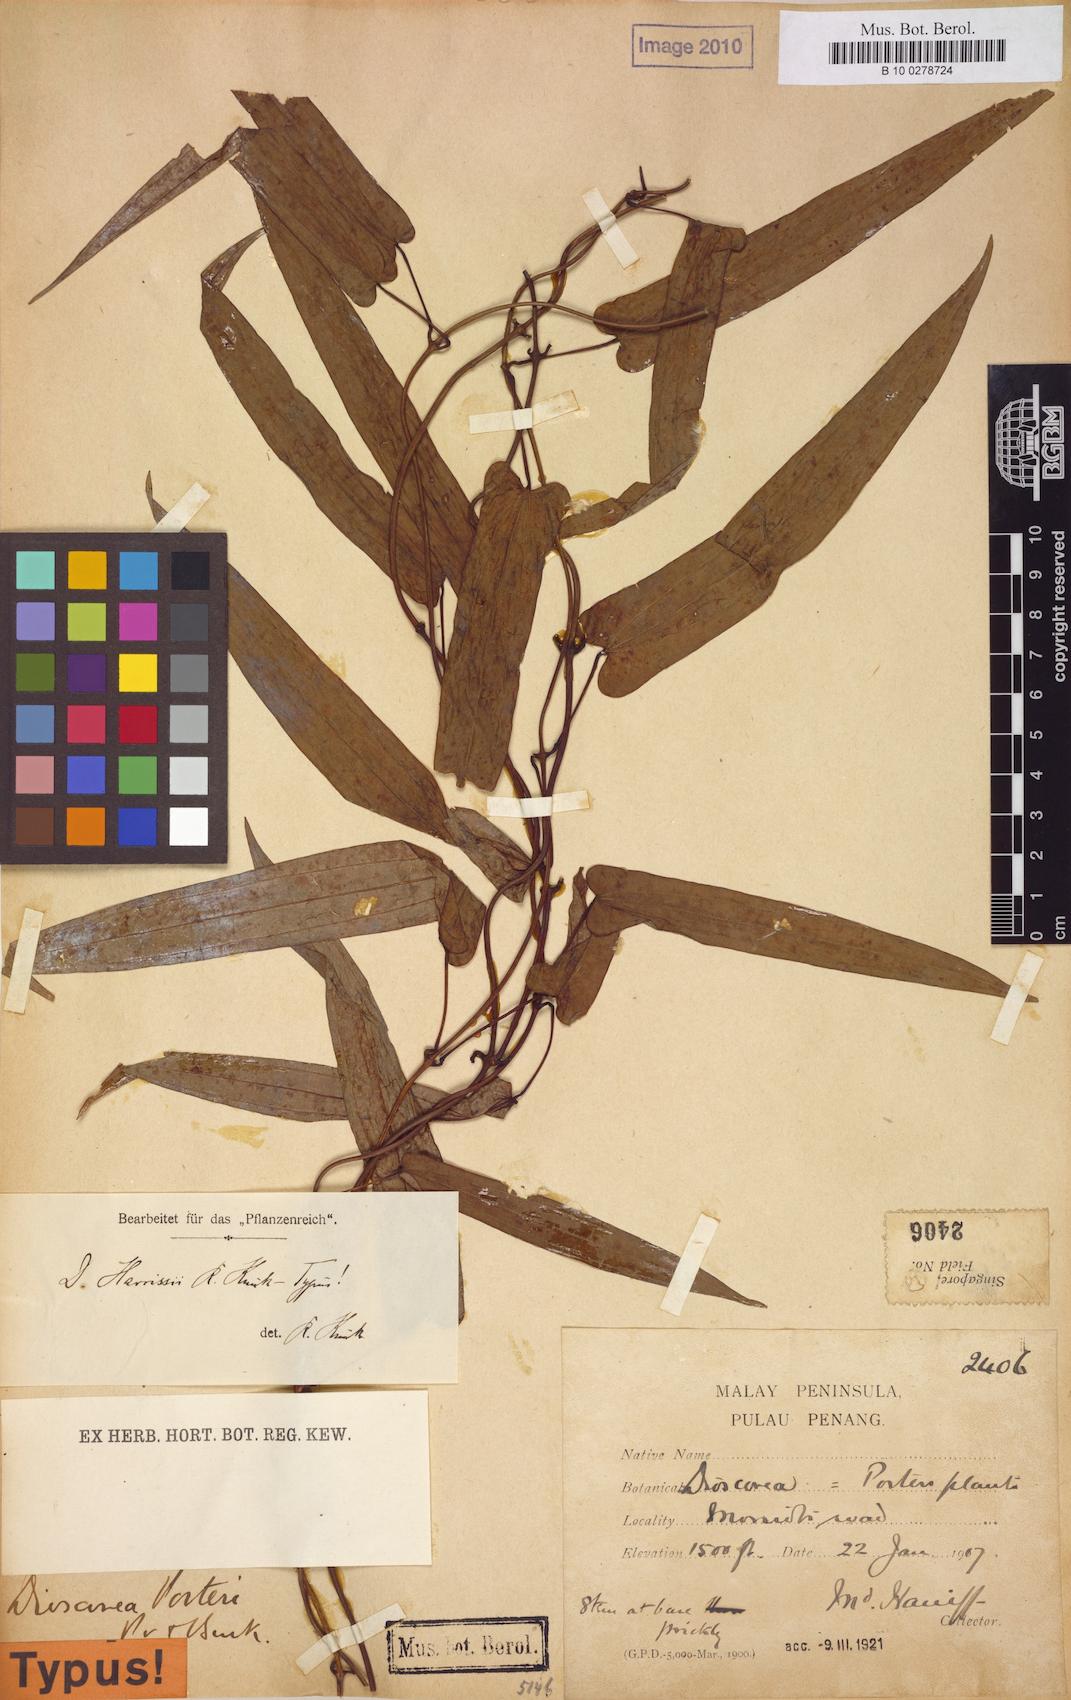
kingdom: Plantae
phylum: Tracheophyta
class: Liliopsida
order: Dioscoreales
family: Dioscoreaceae
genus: Dioscorea
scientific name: Dioscorea kingii
